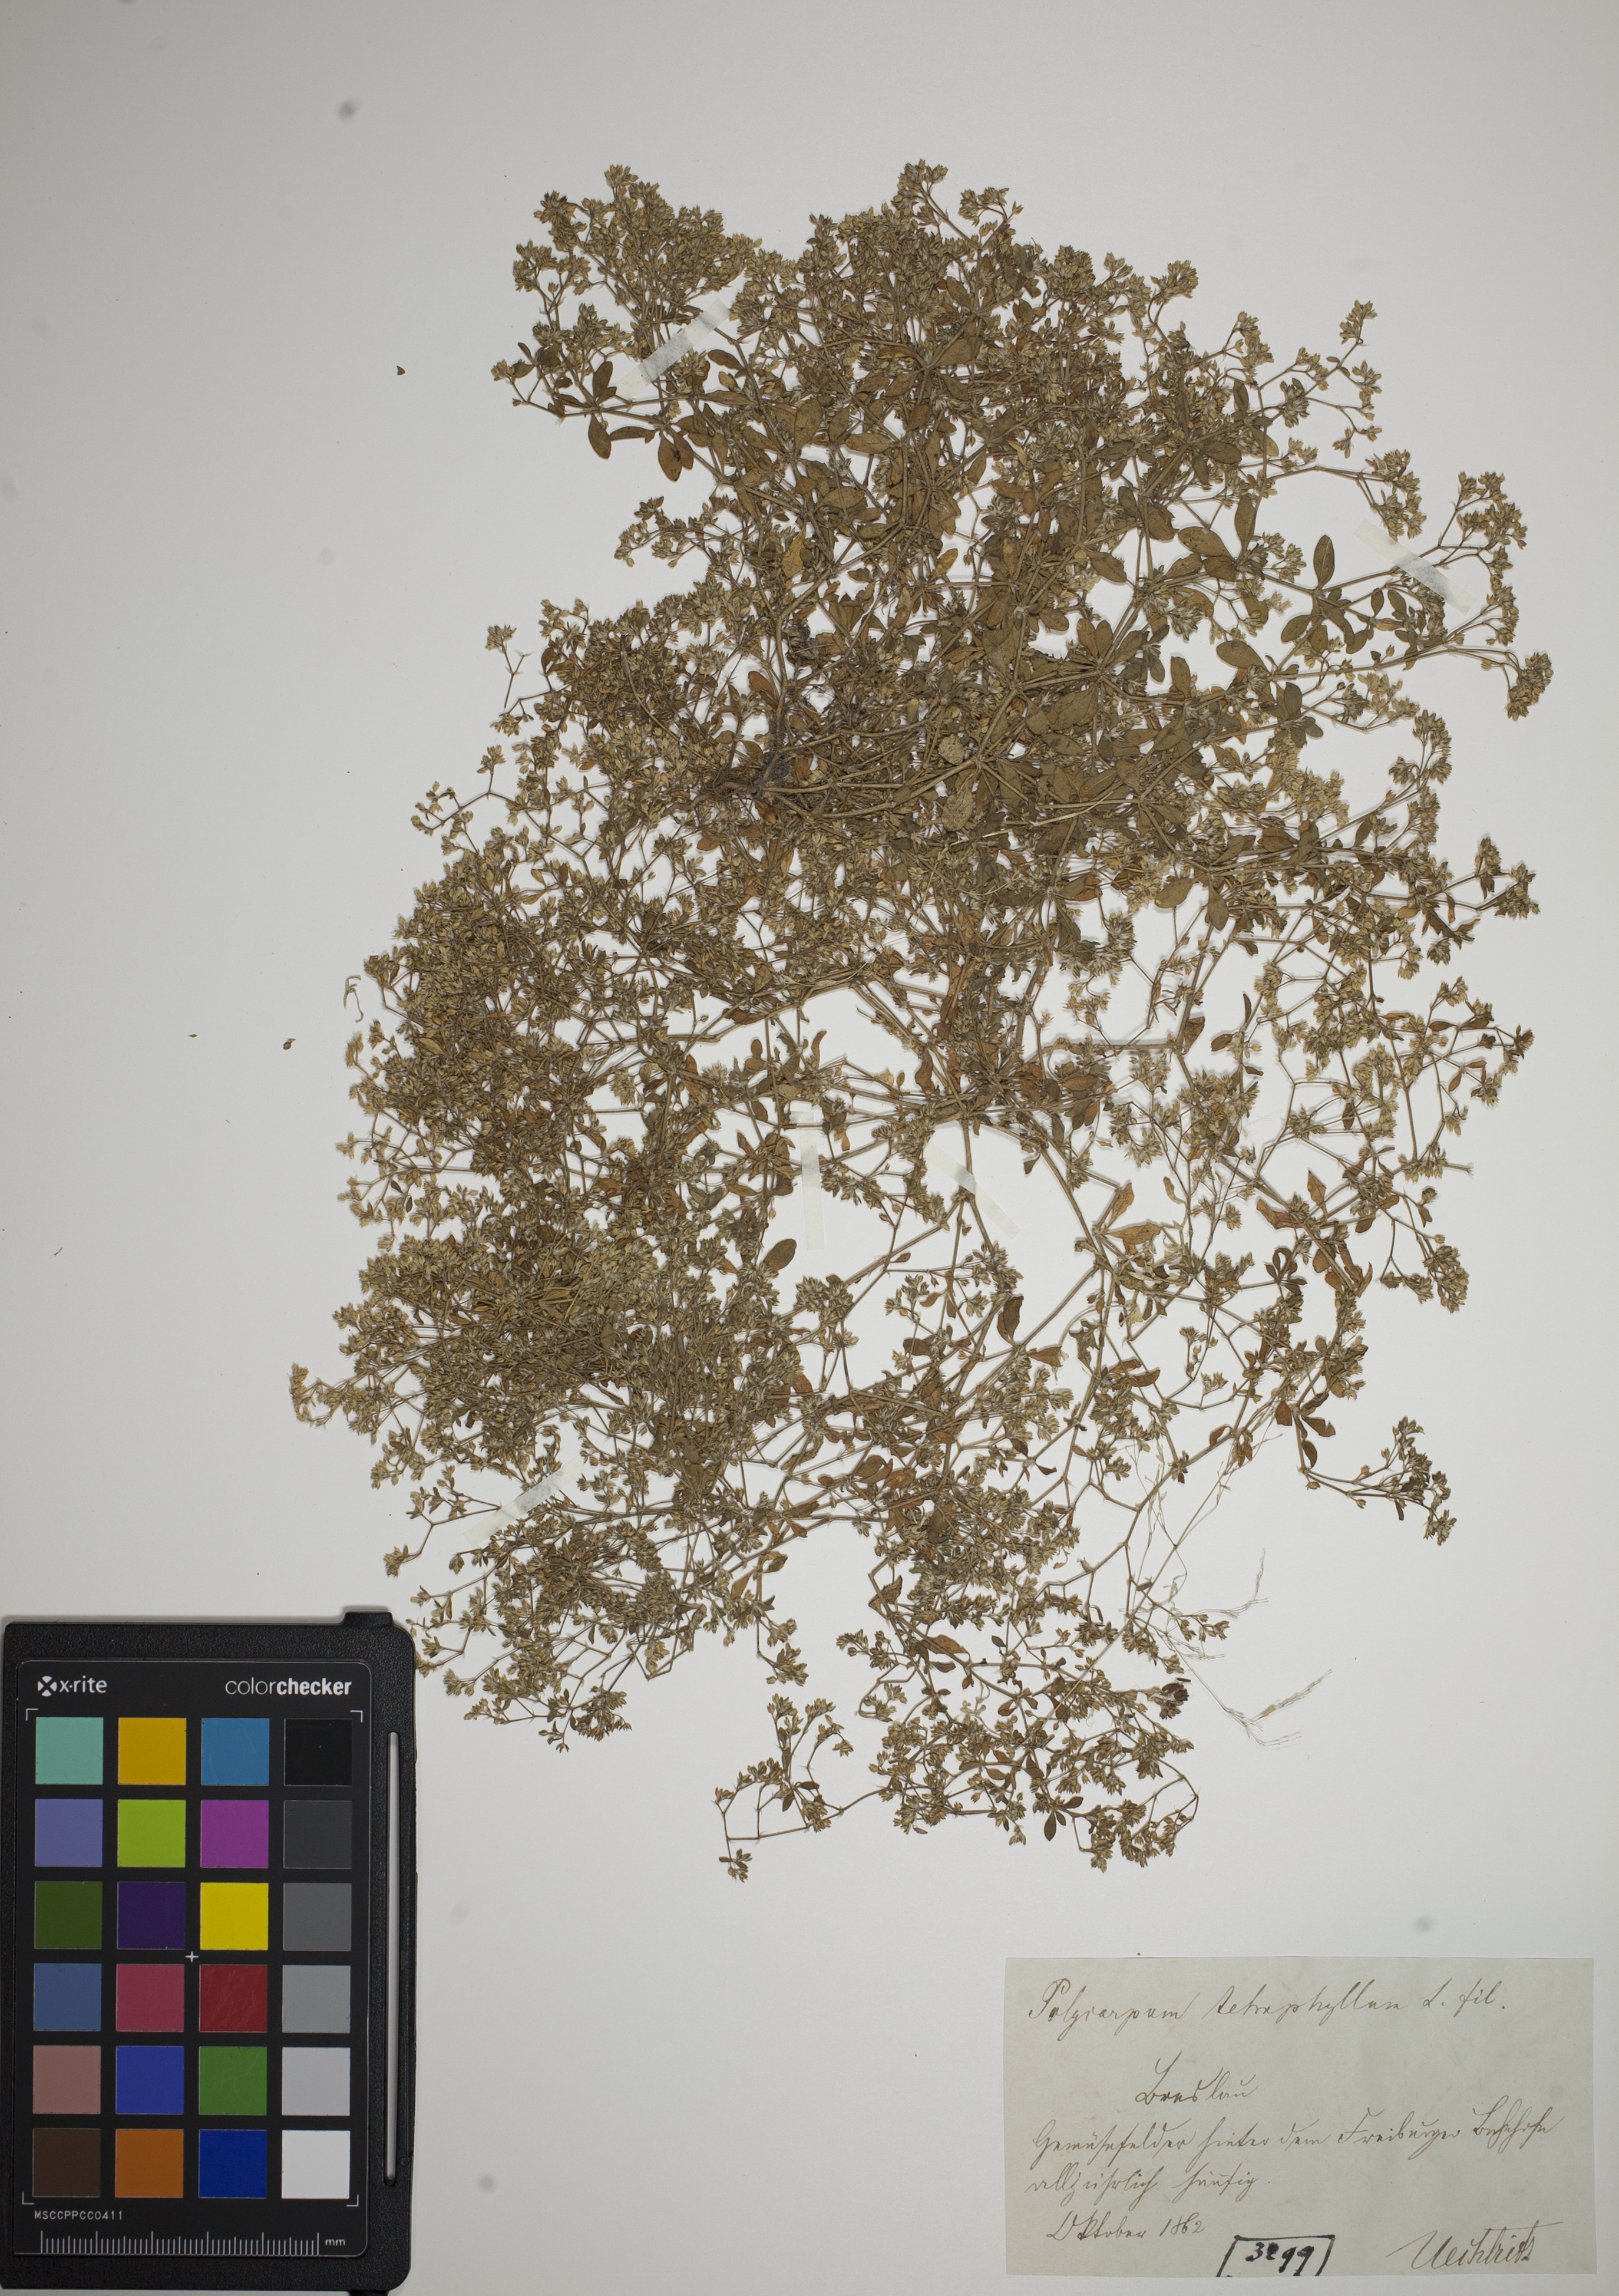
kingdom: Plantae
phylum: Tracheophyta
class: Magnoliopsida
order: Caryophyllales
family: Caryophyllaceae
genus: Polycarpon
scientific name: Polycarpon tetraphyllum
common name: Four-leaved all-seed
